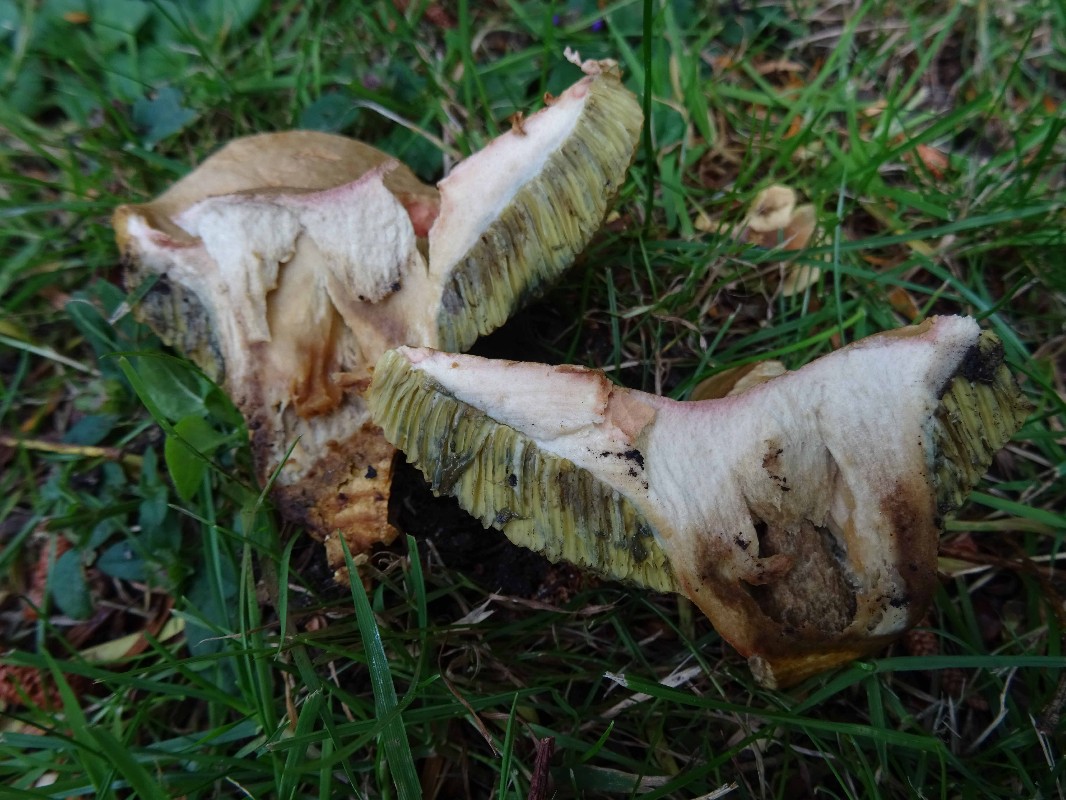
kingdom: Fungi
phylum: Basidiomycota
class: Agaricomycetes
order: Boletales
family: Boletaceae
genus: Hortiboletus
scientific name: Hortiboletus bubalinus
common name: aurora-rørhat
